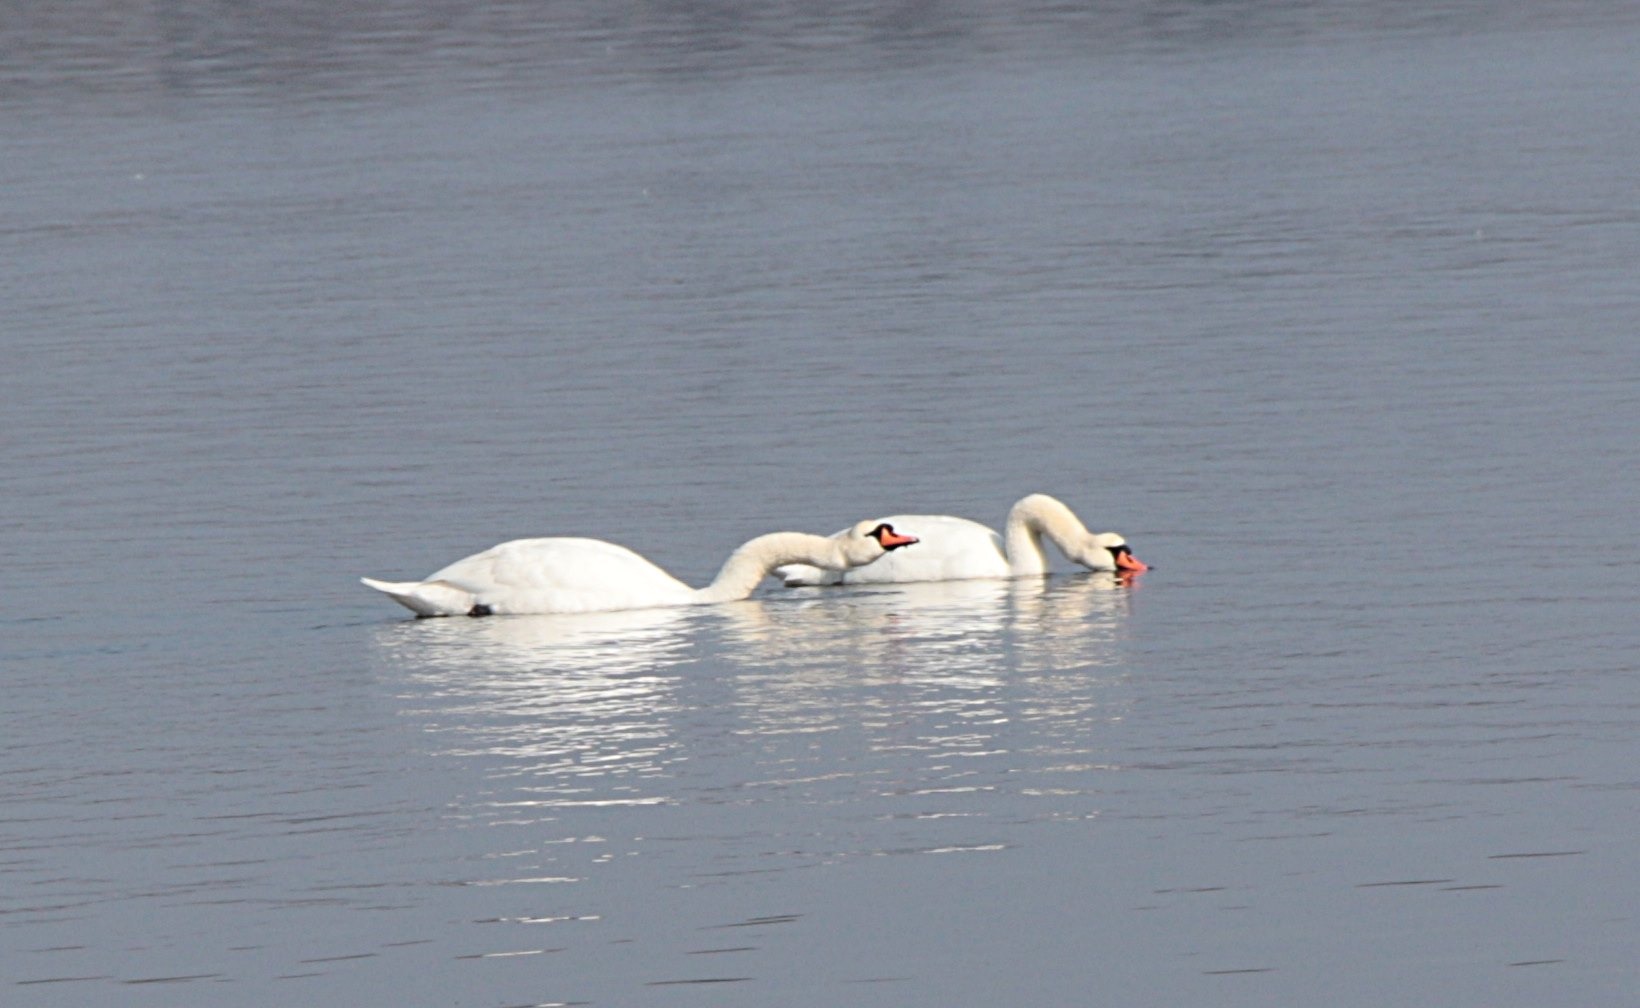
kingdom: Animalia
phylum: Chordata
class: Aves
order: Anseriformes
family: Anatidae
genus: Cygnus
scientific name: Cygnus olor
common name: Knopsvane
